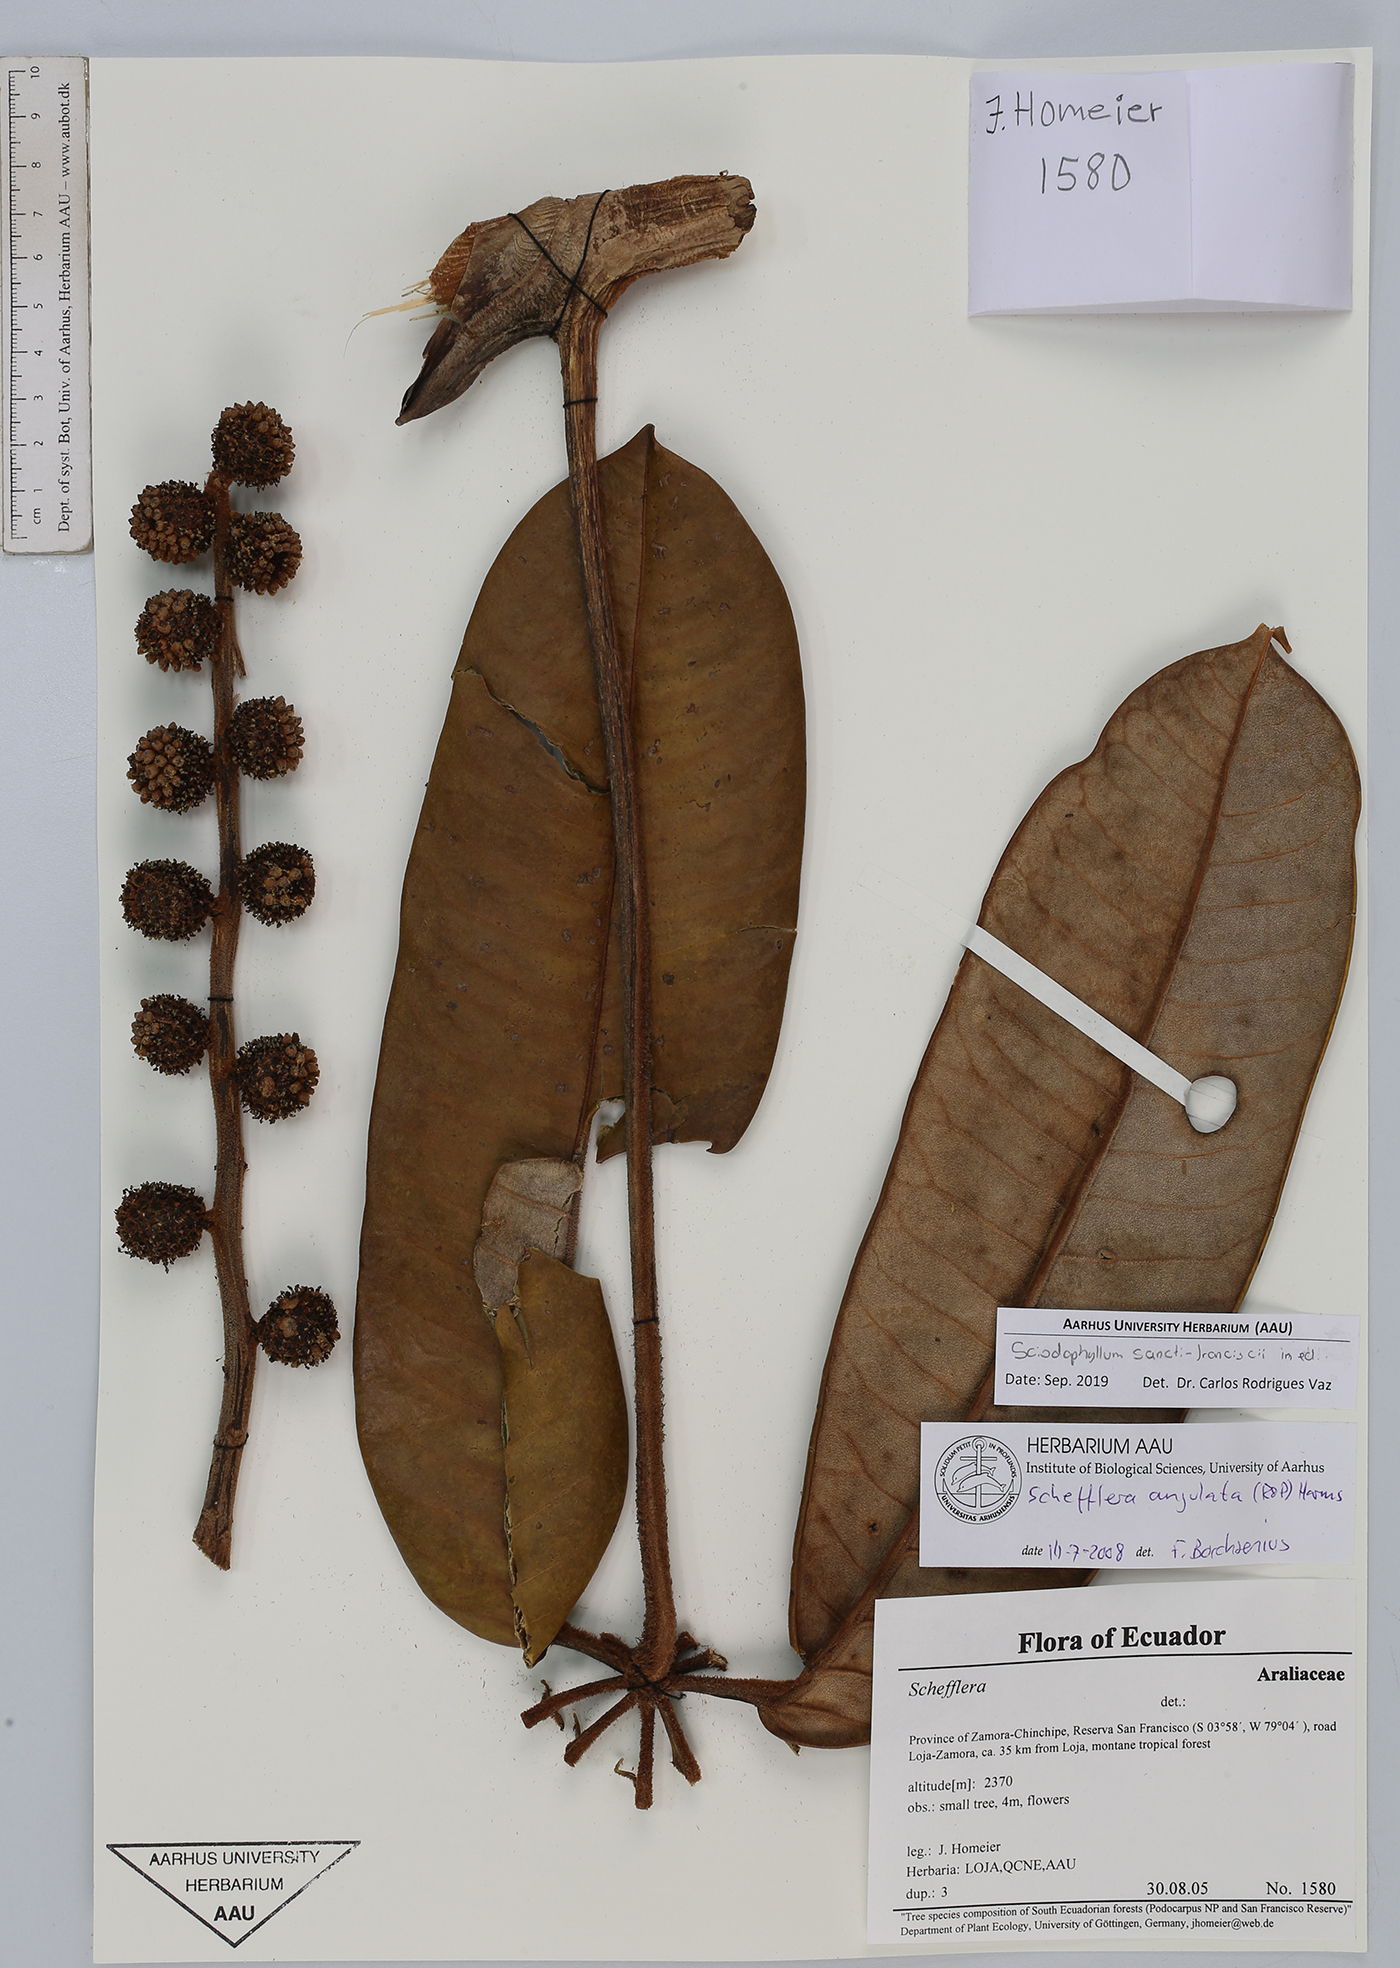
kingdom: Plantae
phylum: Tracheophyta
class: Magnoliopsida
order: Apiales
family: Araliaceae
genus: Sciodaphyllum
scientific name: Sciodaphyllum
